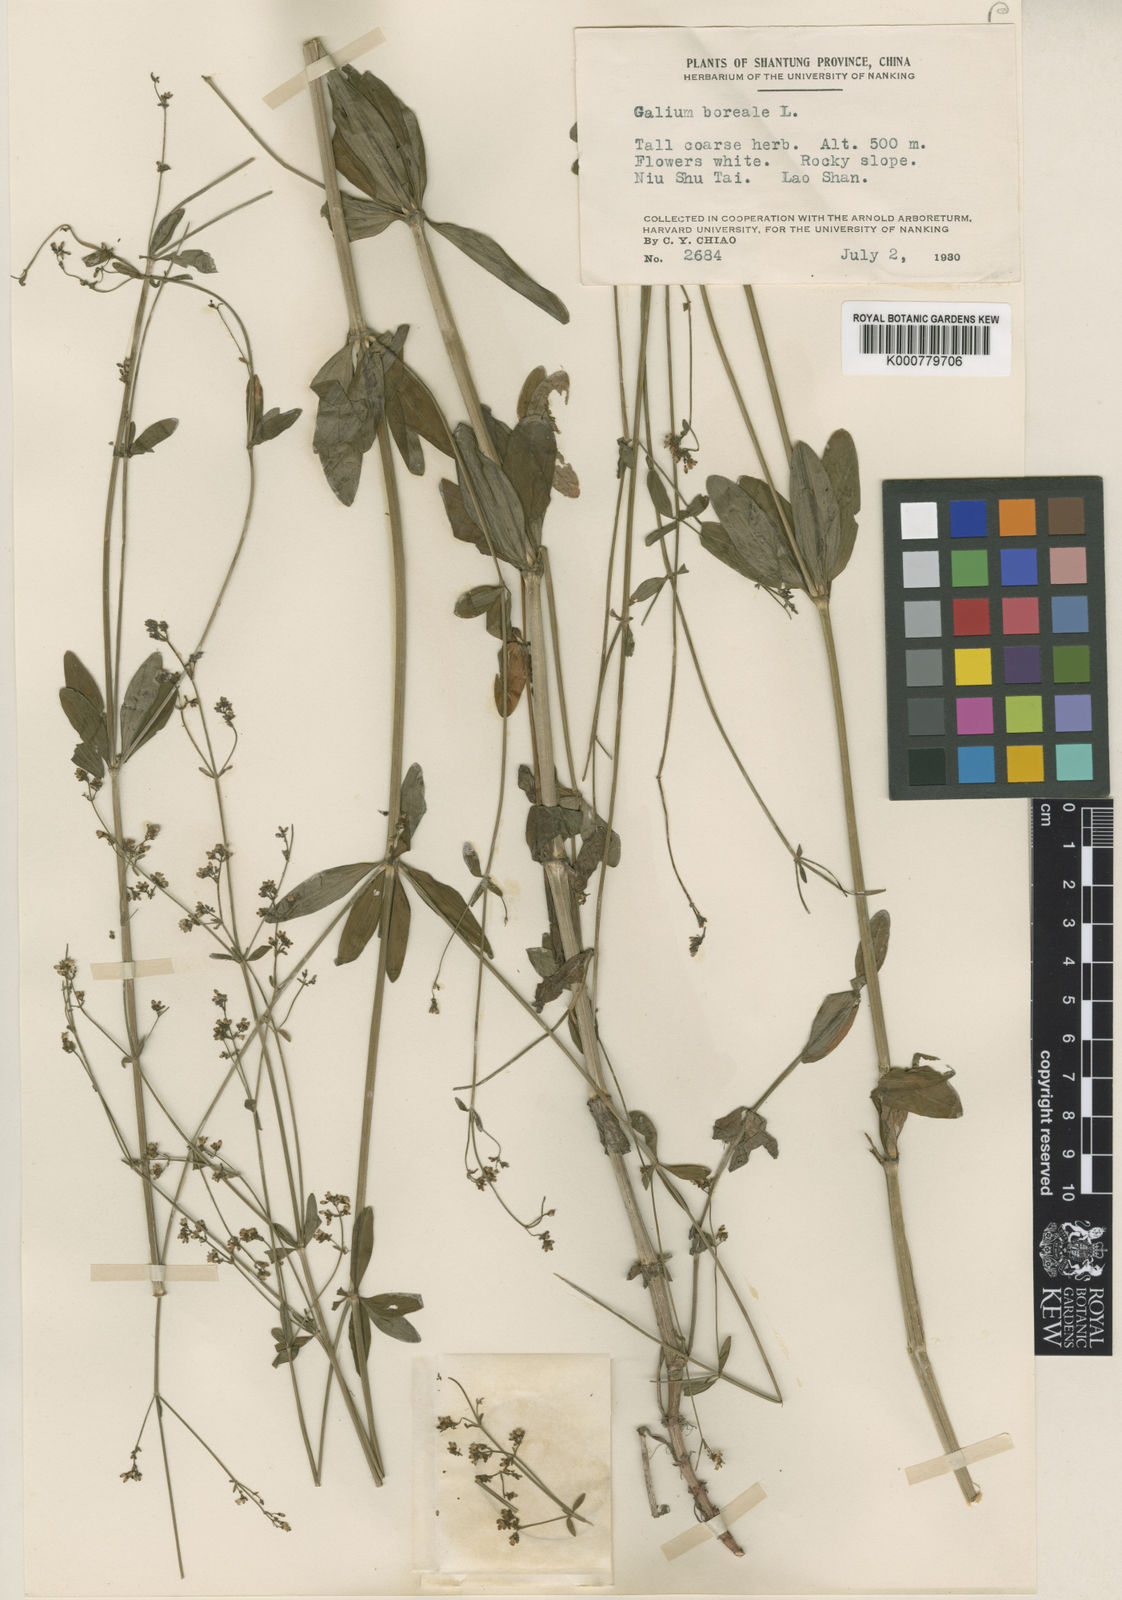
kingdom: Plantae
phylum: Tracheophyta
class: Magnoliopsida
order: Gentianales
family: Rubiaceae
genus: Galium
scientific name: Galium maximoviczii
